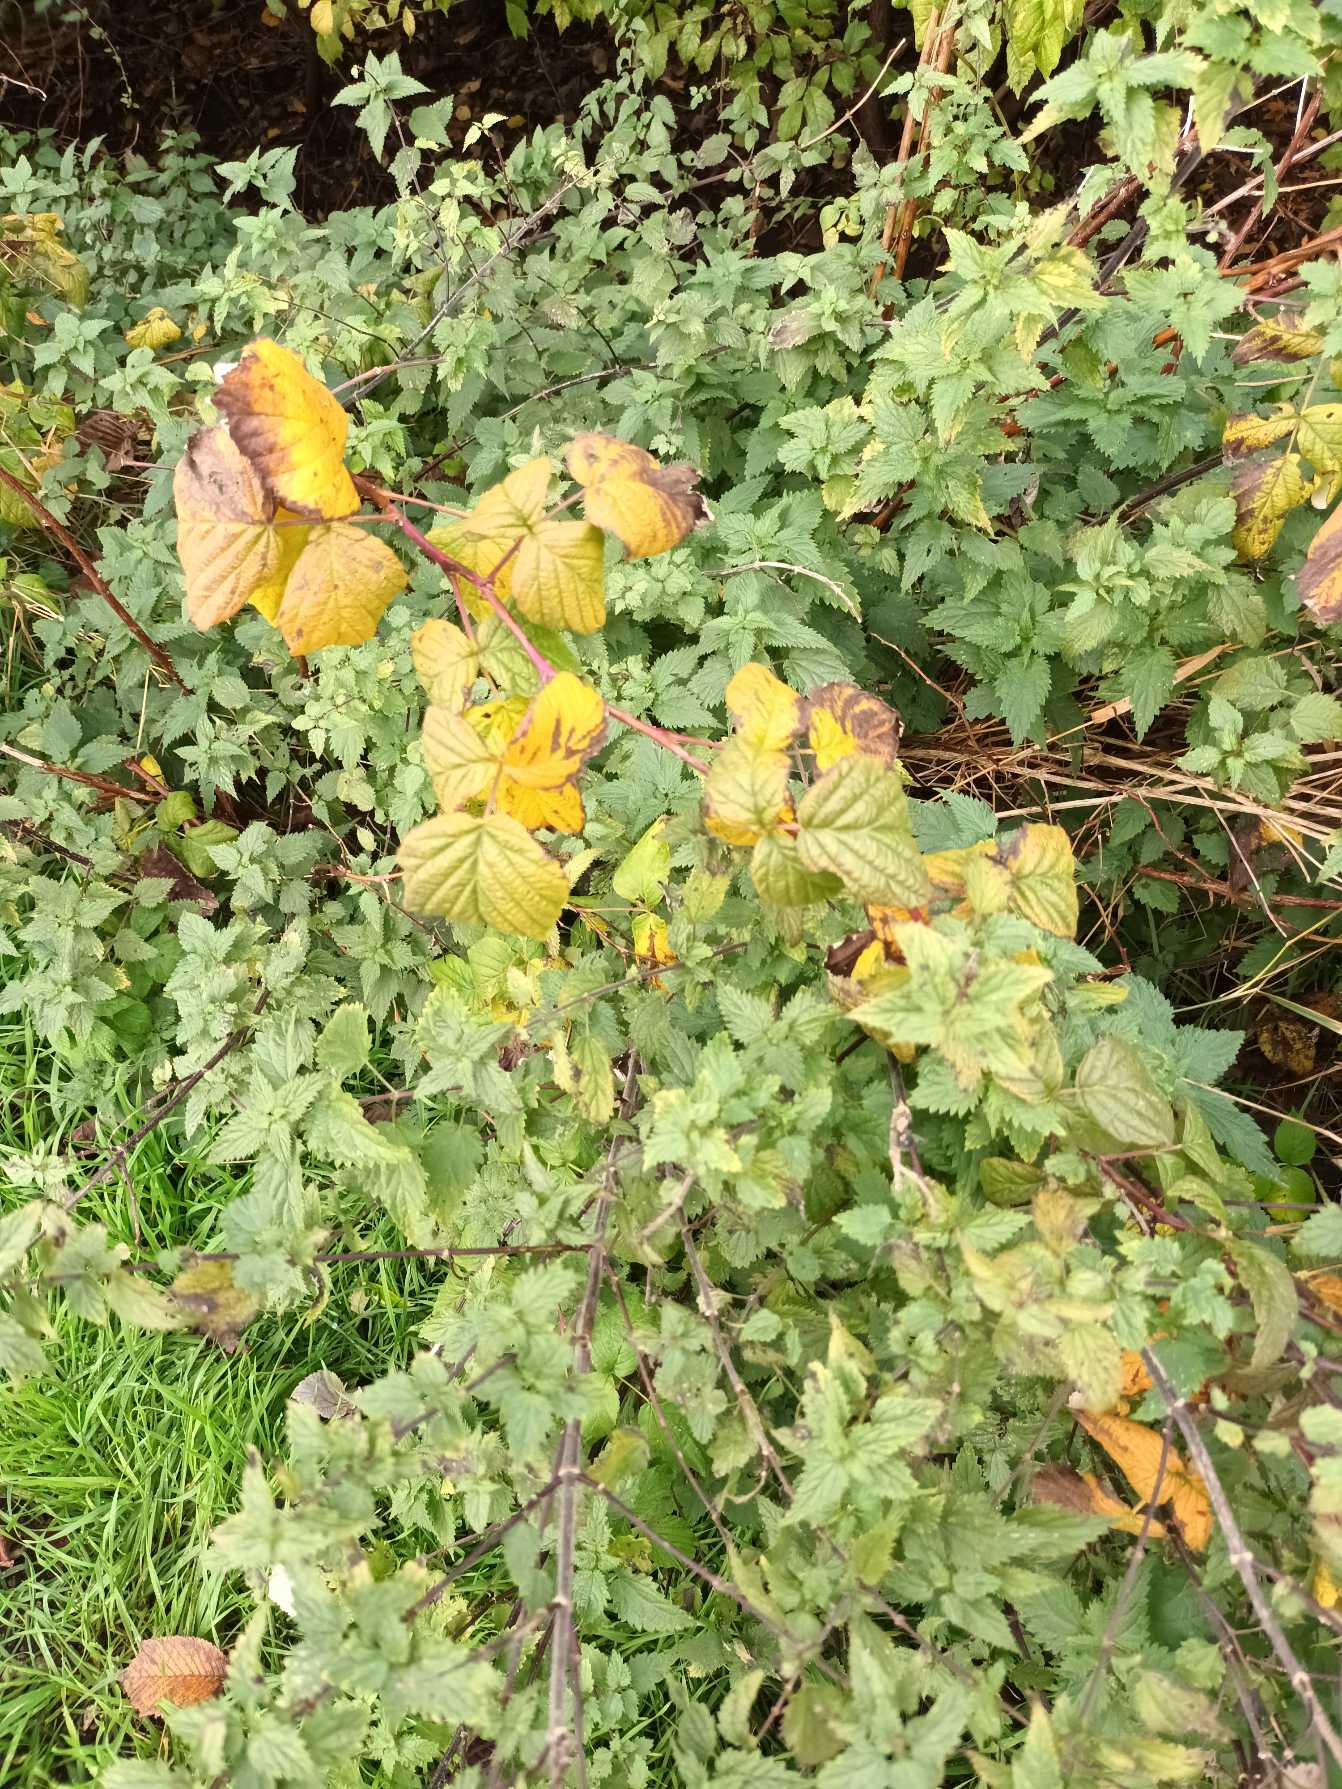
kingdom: Plantae
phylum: Tracheophyta
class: Magnoliopsida
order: Rosales
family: Rosaceae
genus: Rubus
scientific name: Rubus idaeus
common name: Hindbær
